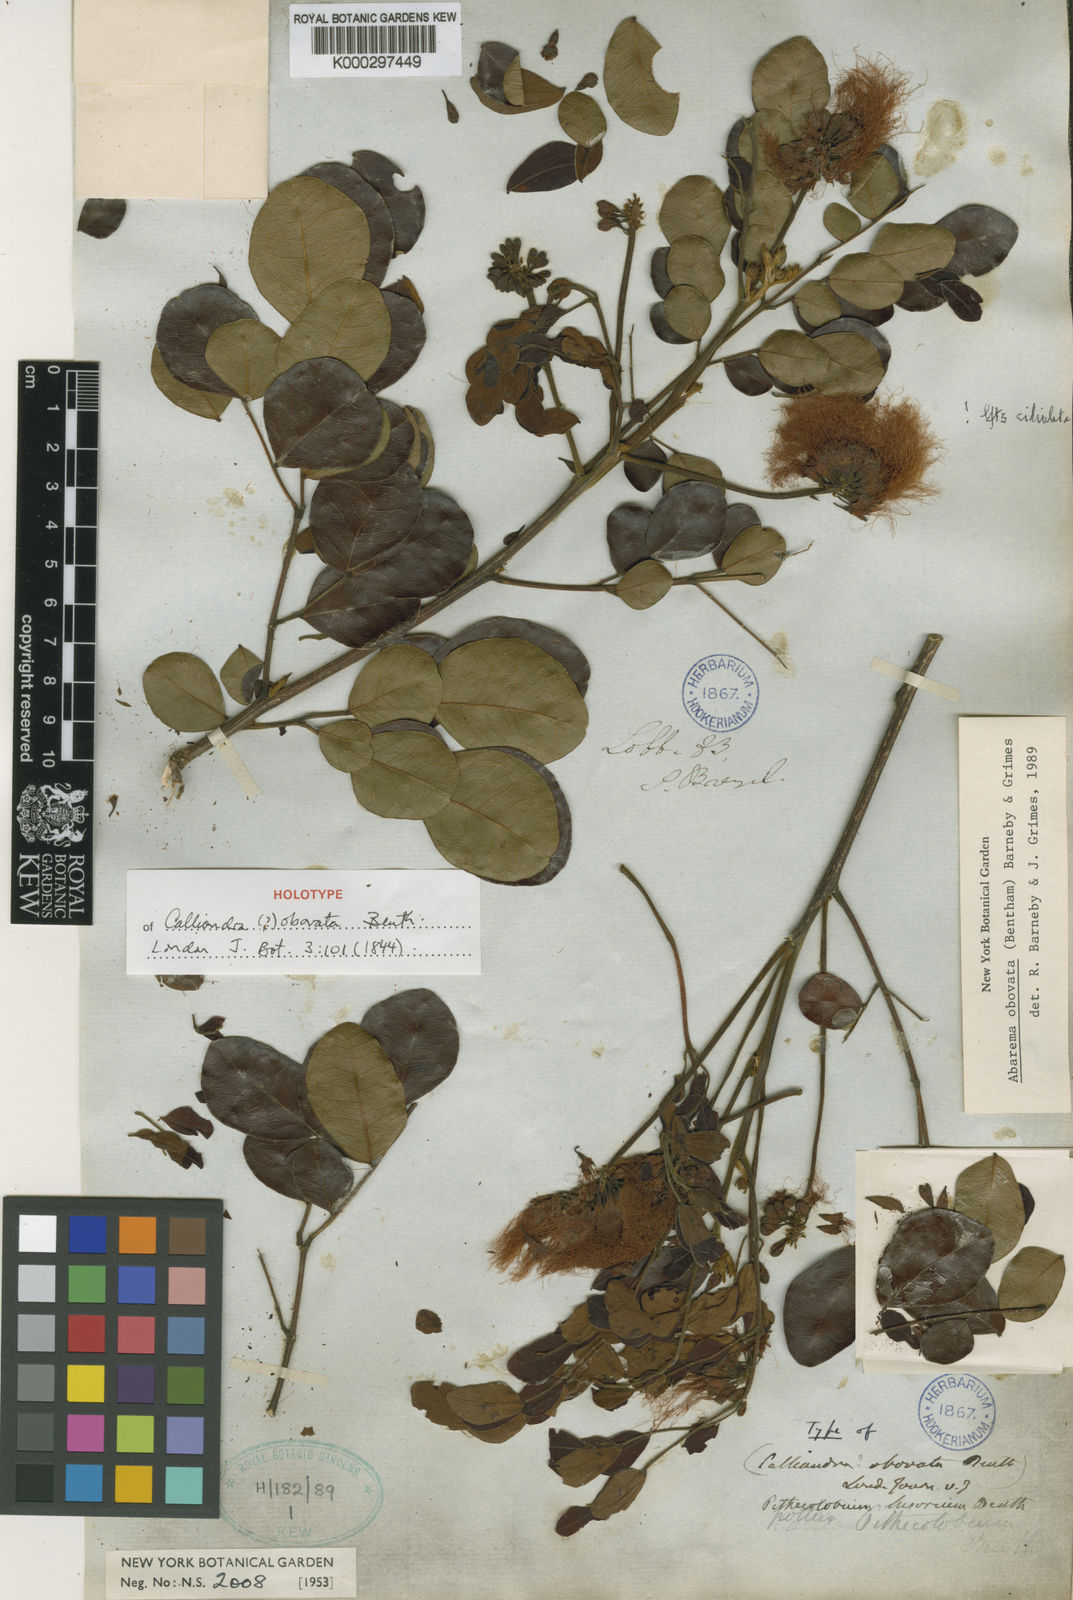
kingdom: Plantae
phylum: Tracheophyta
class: Magnoliopsida
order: Fabales
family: Fabaceae
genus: Jupunba
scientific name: Jupunba brachystachya
